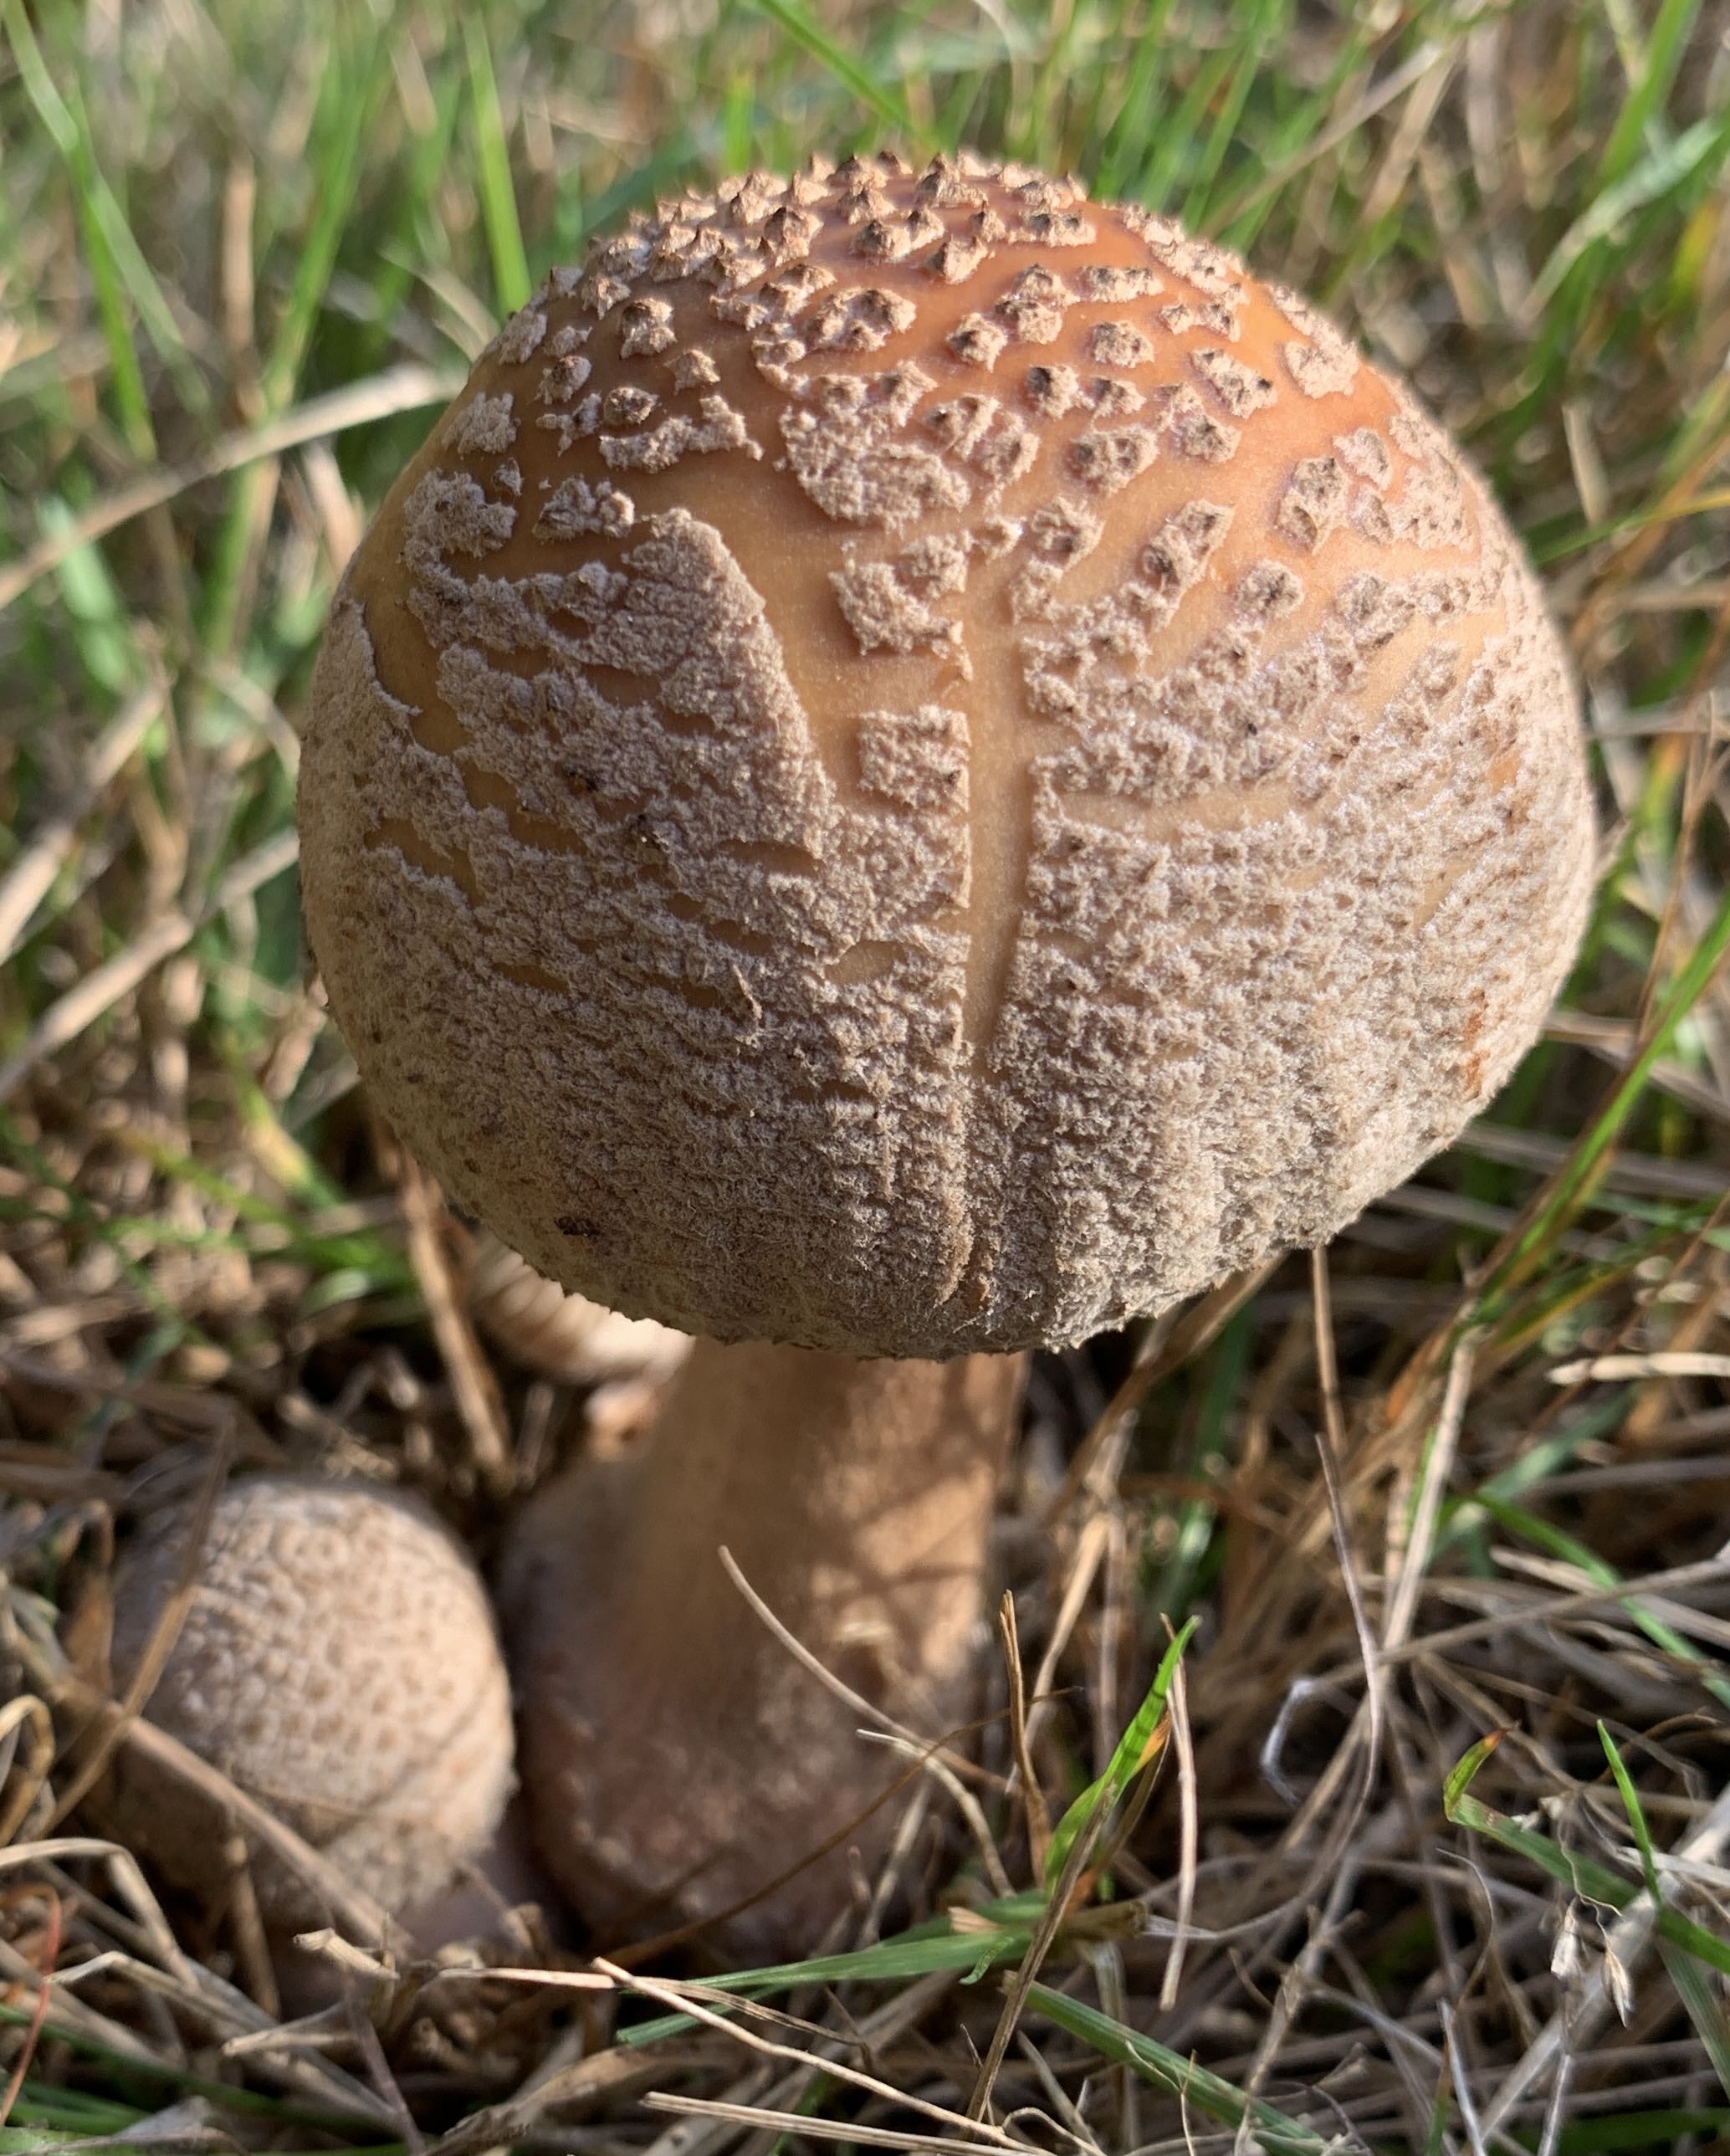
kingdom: Fungi
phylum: Basidiomycota
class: Agaricomycetes
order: Agaricales
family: Amanitaceae
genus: Amanita
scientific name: Amanita rubescens
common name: rødmende fluesvamp
